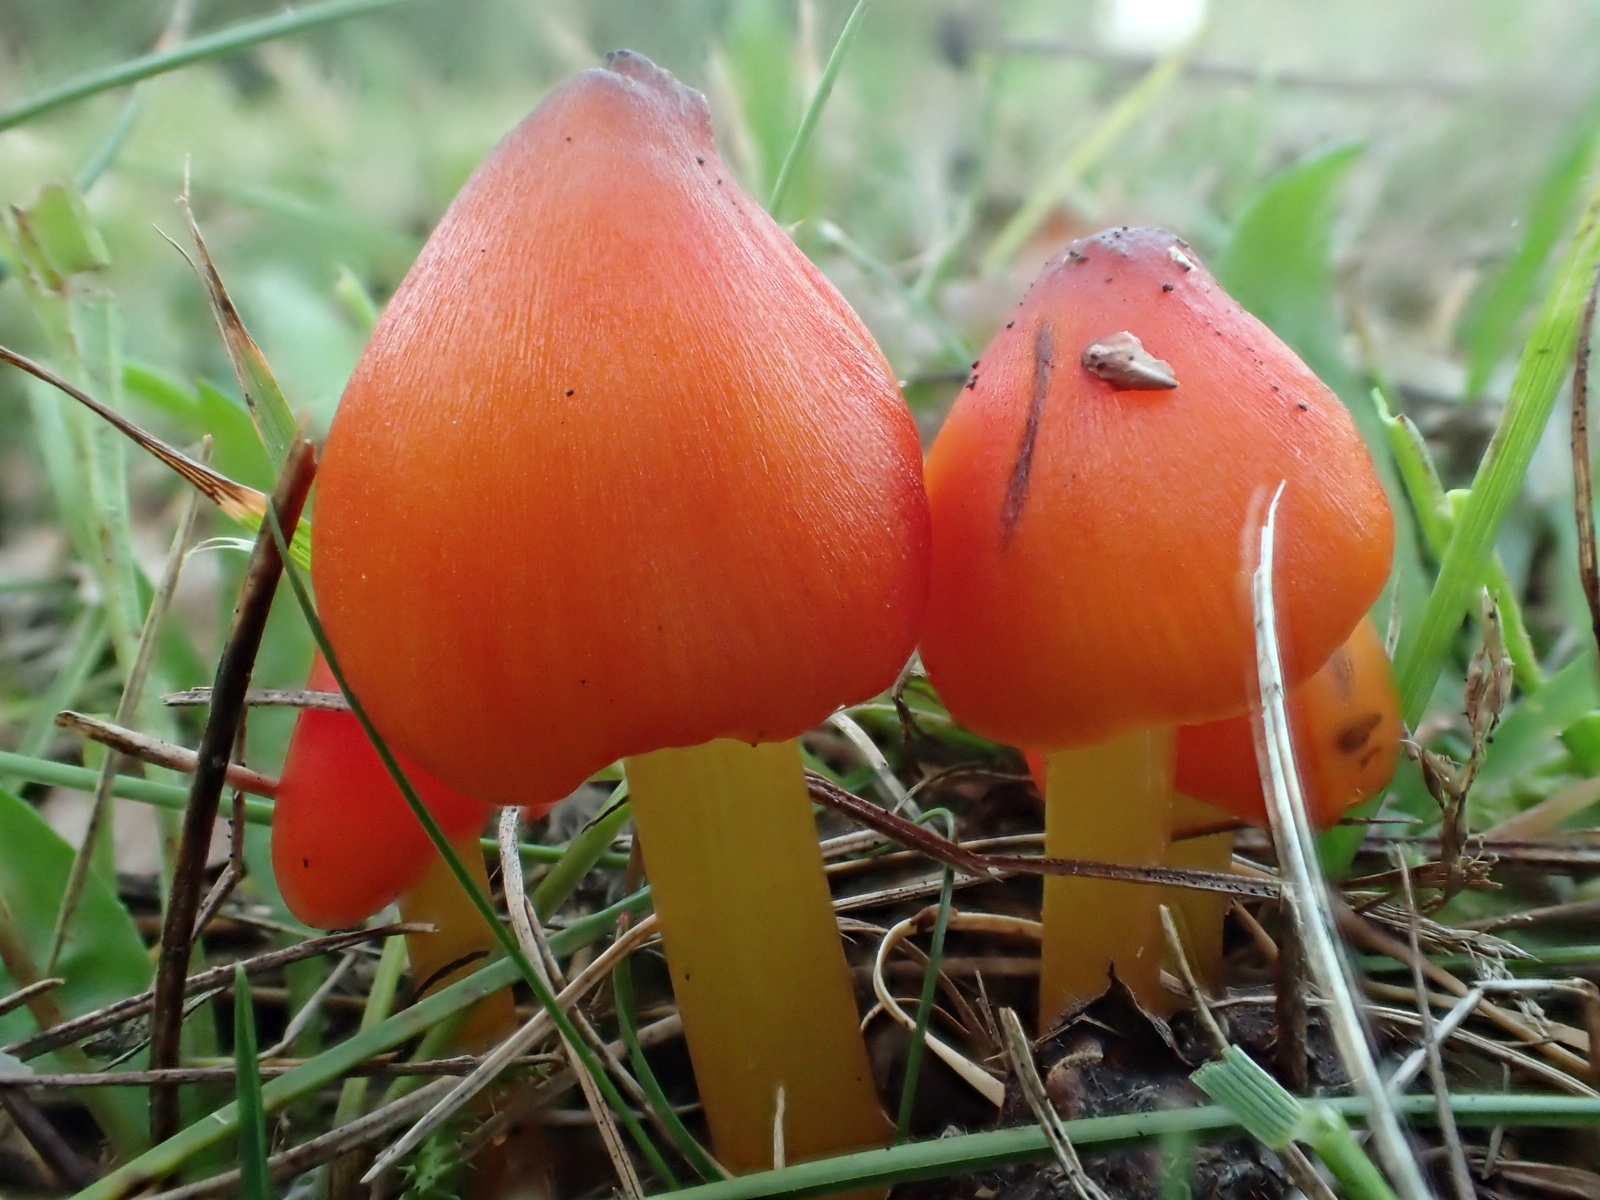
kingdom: Fungi
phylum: Basidiomycota
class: Agaricomycetes
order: Agaricales
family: Hygrophoraceae
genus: Hygrocybe
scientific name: Hygrocybe conica
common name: kegle-vokshat
